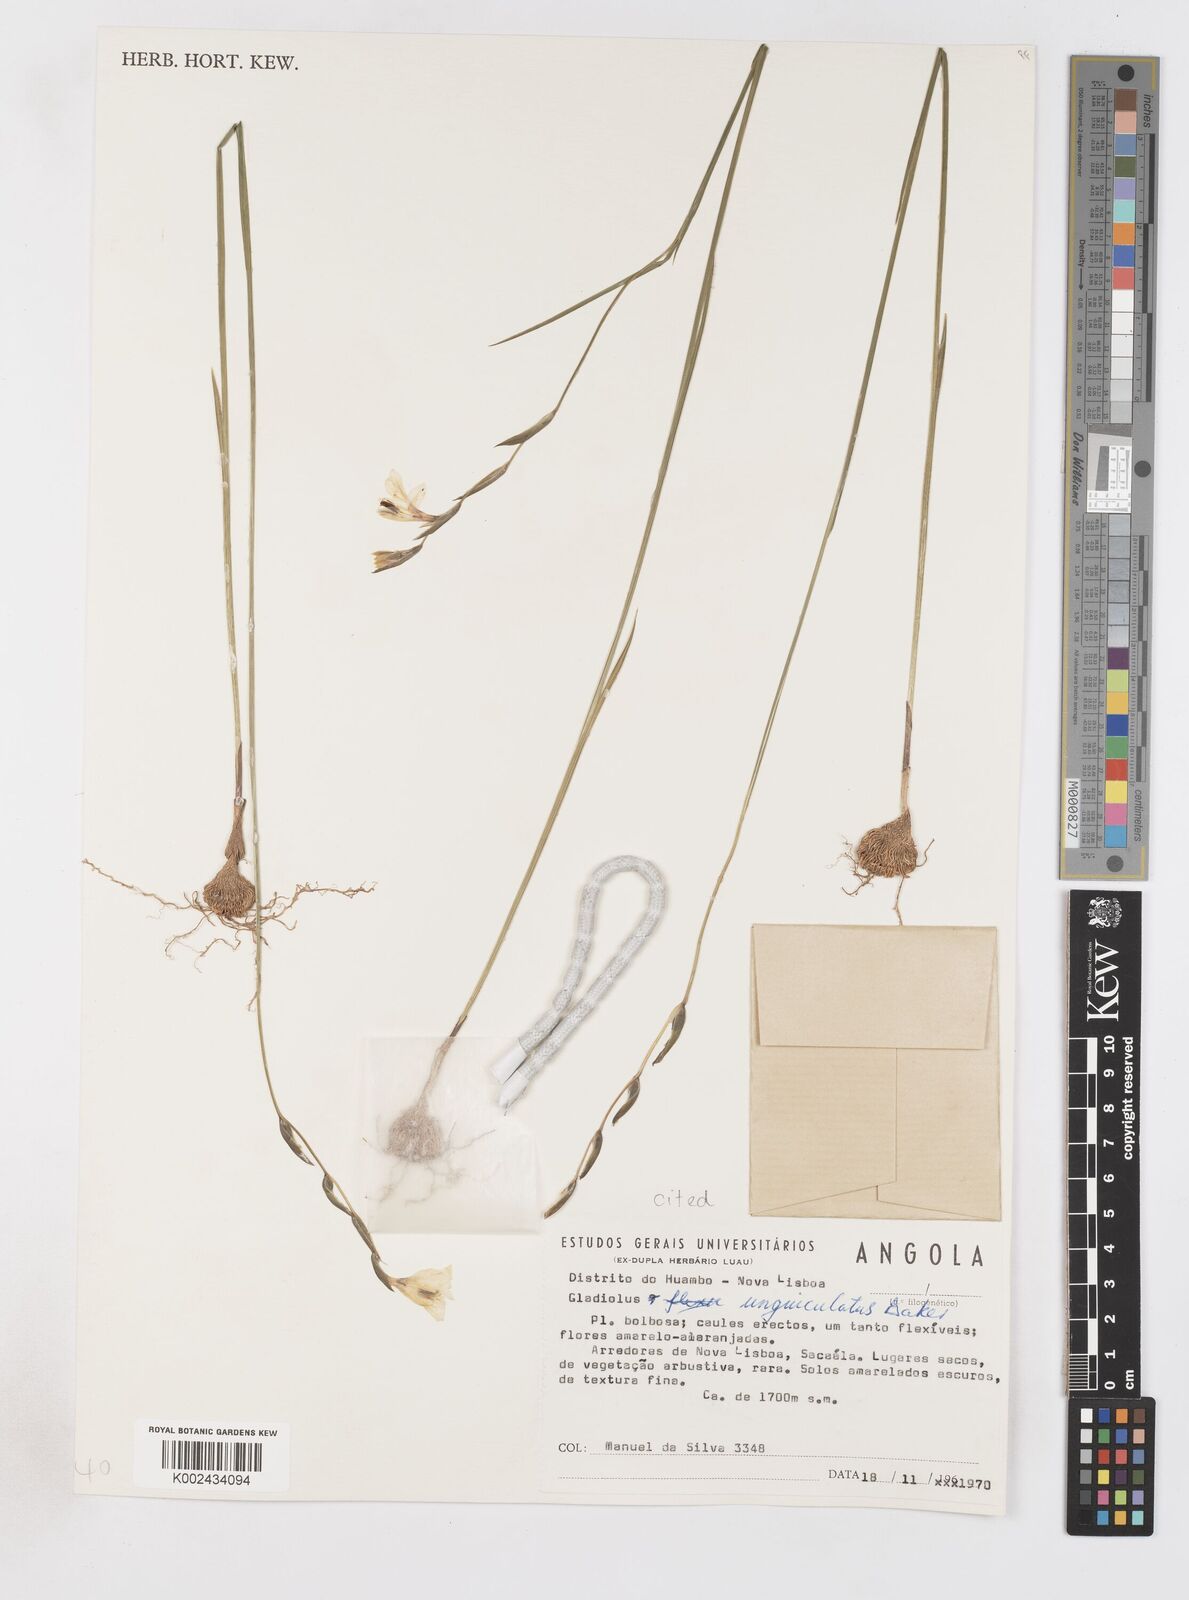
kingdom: Plantae
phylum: Tracheophyta
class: Liliopsida
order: Asparagales
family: Iridaceae
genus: Gladiolus
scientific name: Gladiolus atropurpureus
